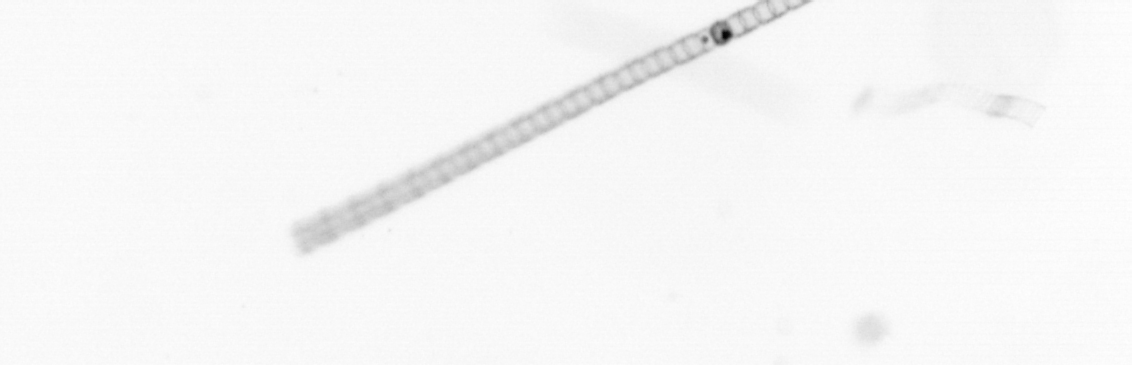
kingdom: Chromista
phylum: Ochrophyta
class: Bacillariophyceae
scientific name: Bacillariophyceae
